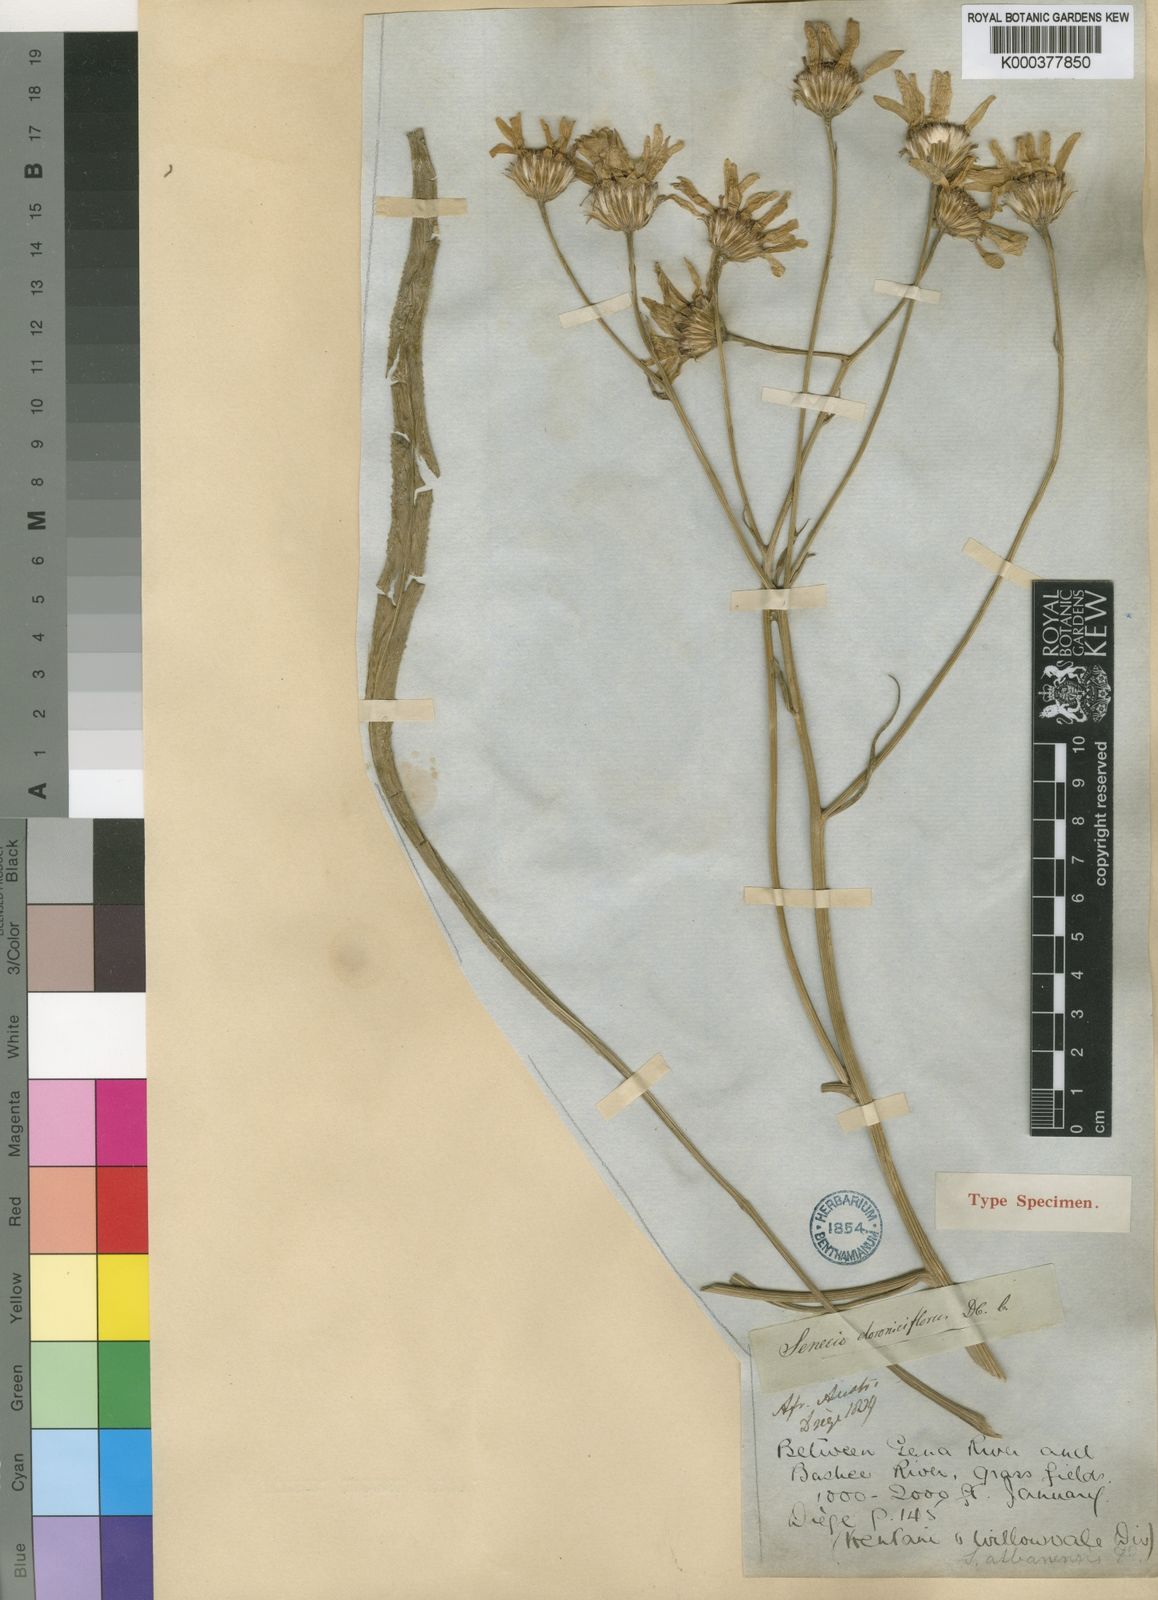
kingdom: Plantae
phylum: Tracheophyta
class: Magnoliopsida
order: Asterales
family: Asteraceae
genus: Senecio
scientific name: Senecio albanensis
